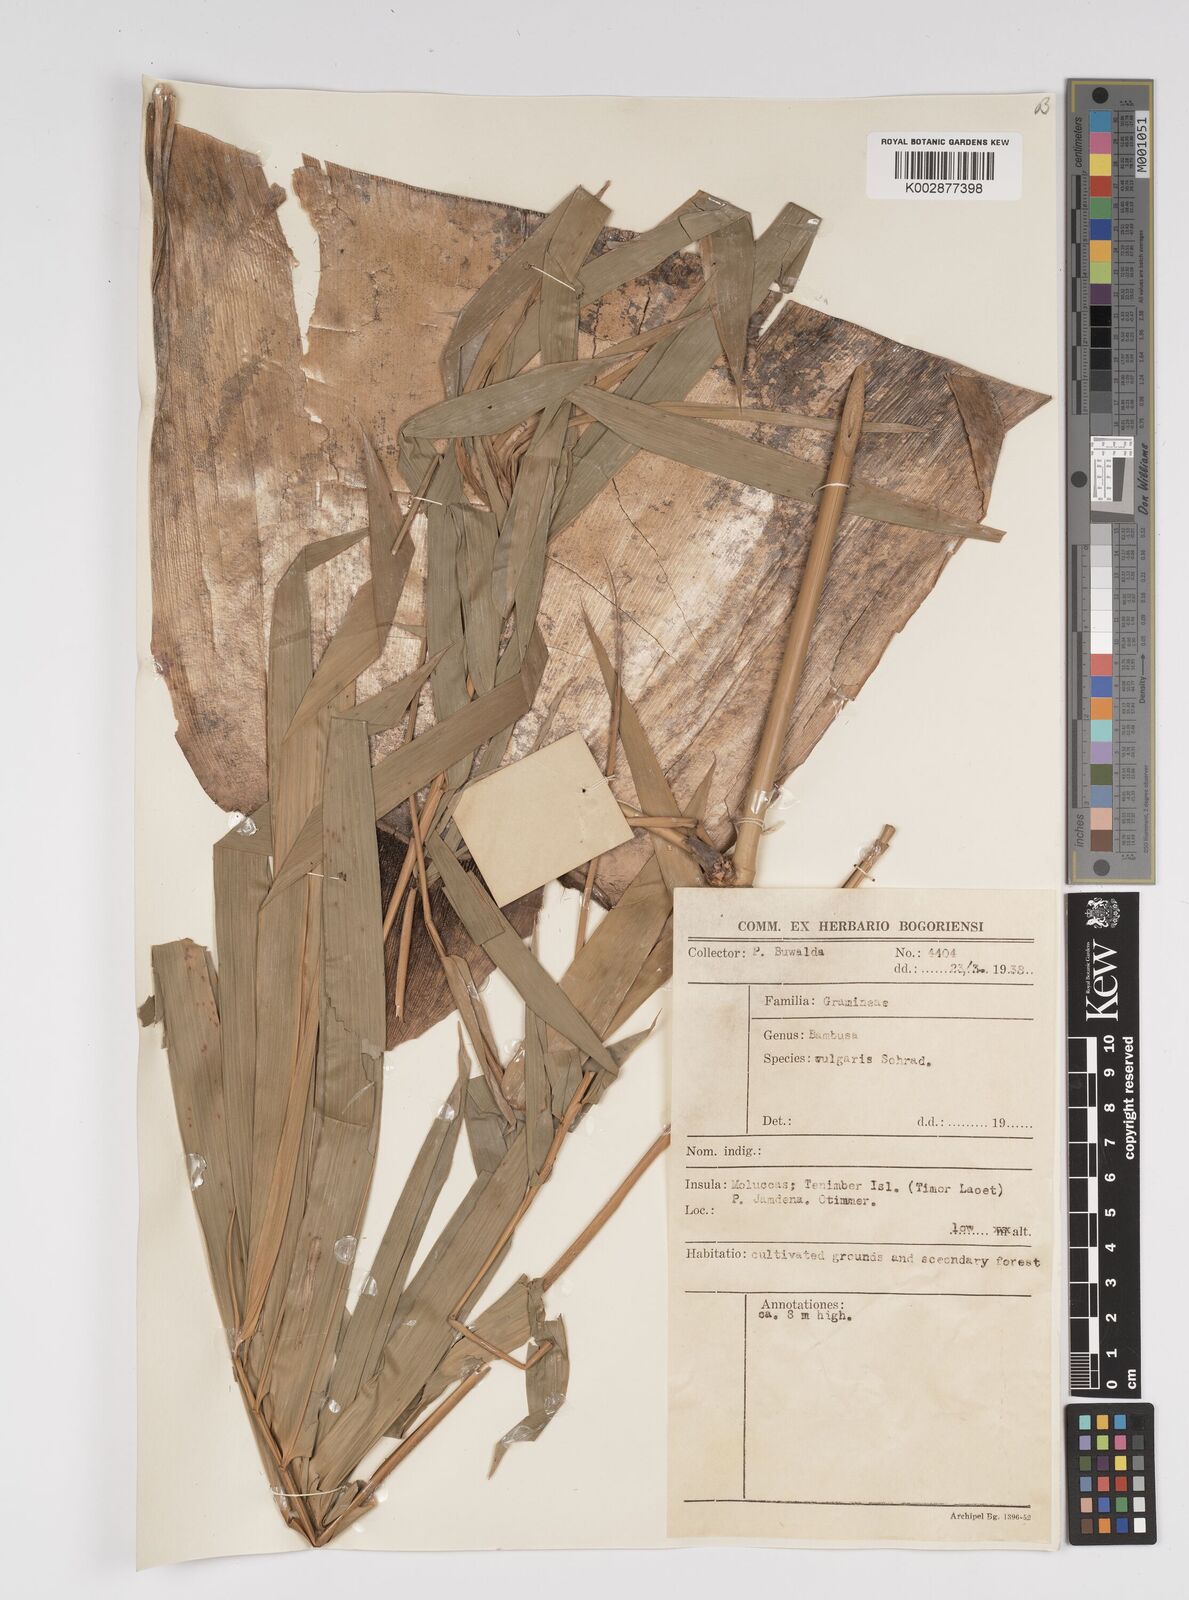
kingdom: Plantae
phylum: Tracheophyta
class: Liliopsida
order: Poales
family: Poaceae
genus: Bambusa
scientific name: Bambusa
